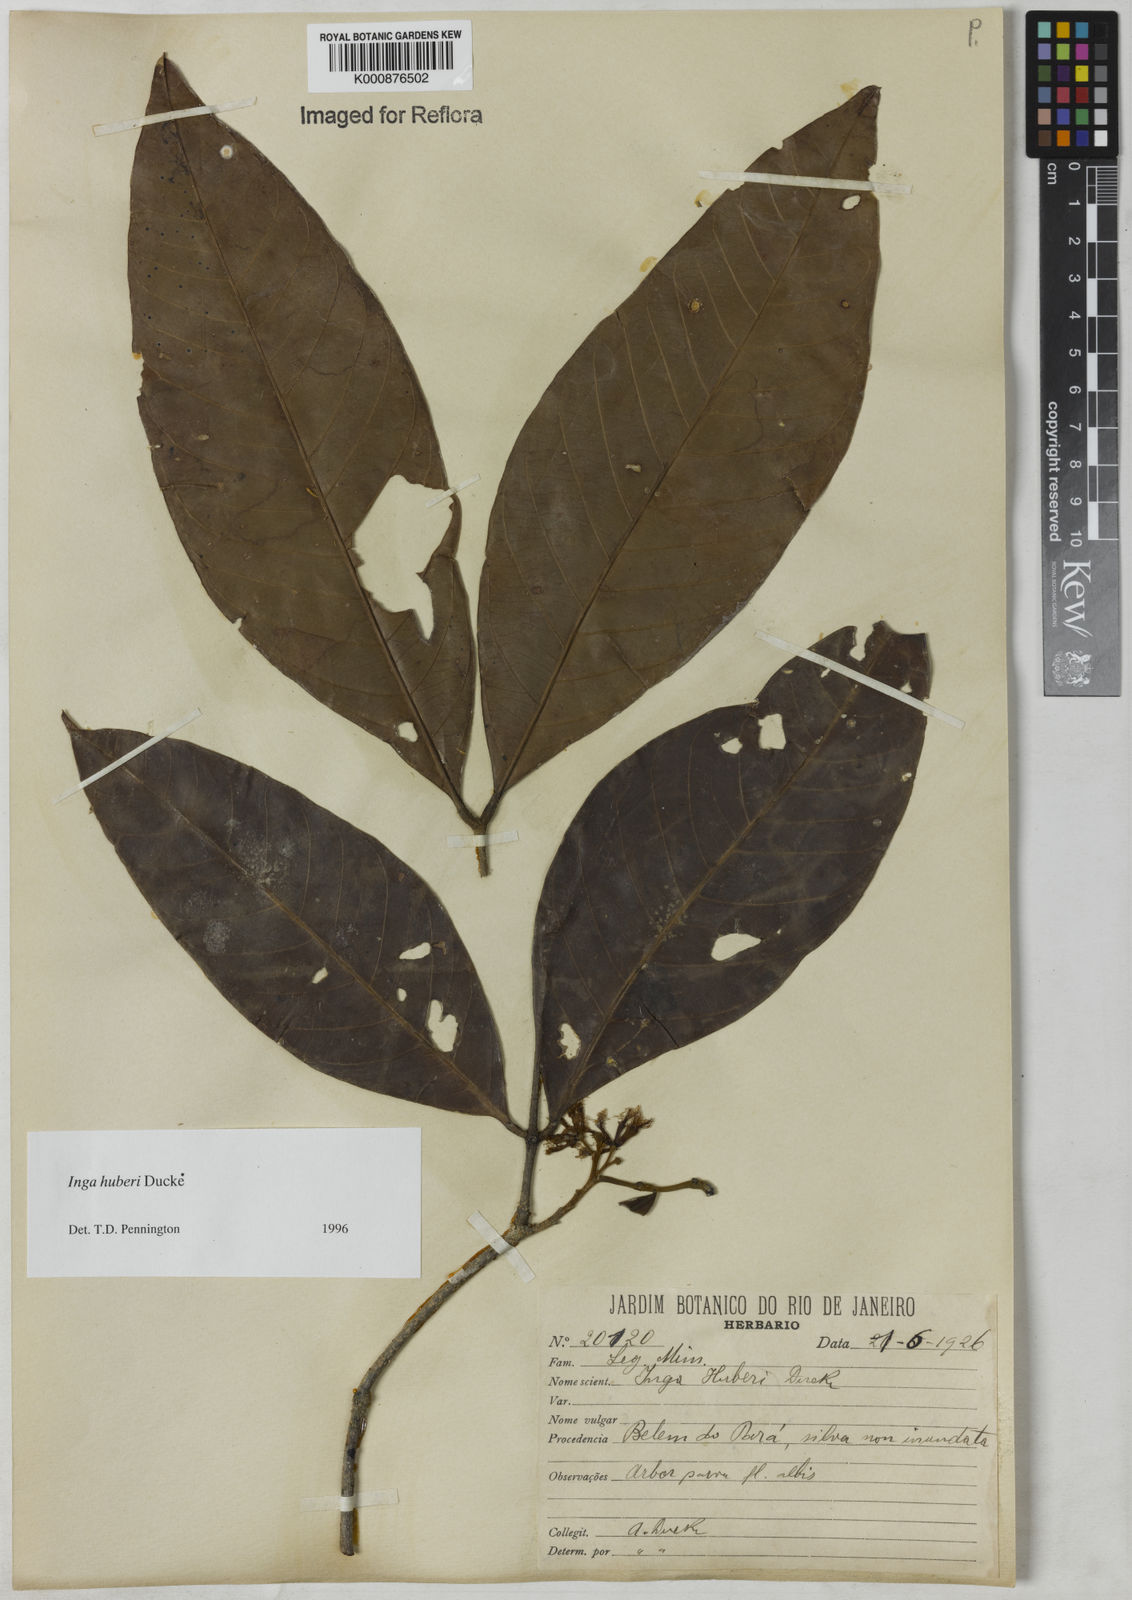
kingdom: Plantae
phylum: Tracheophyta
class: Magnoliopsida
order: Fabales
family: Fabaceae
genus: Inga
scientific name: Inga huberi
